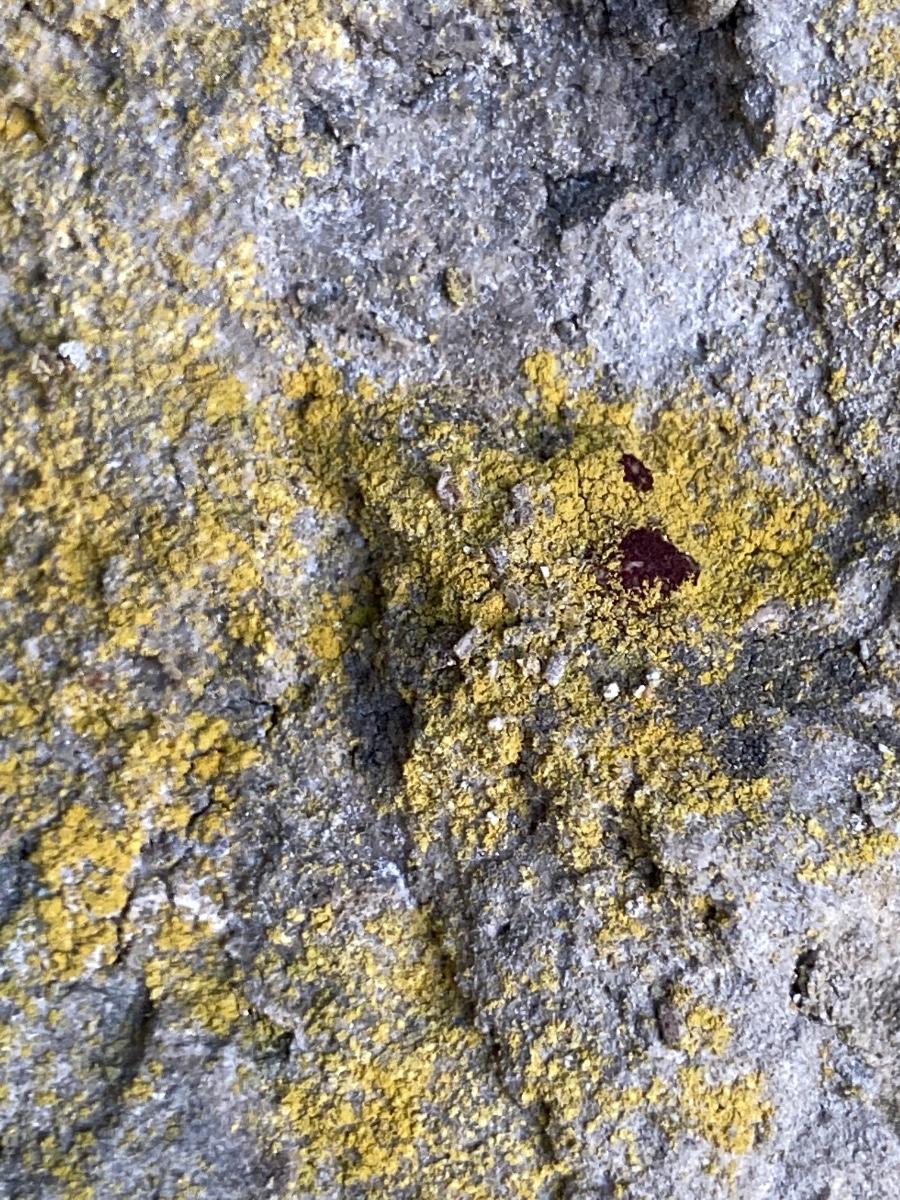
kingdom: Fungi
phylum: Ascomycota
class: Lecanoromycetes
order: Teloschistales
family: Teloschistaceae
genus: Flavoplaca
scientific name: Flavoplaca citrina
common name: støvet orangelav
